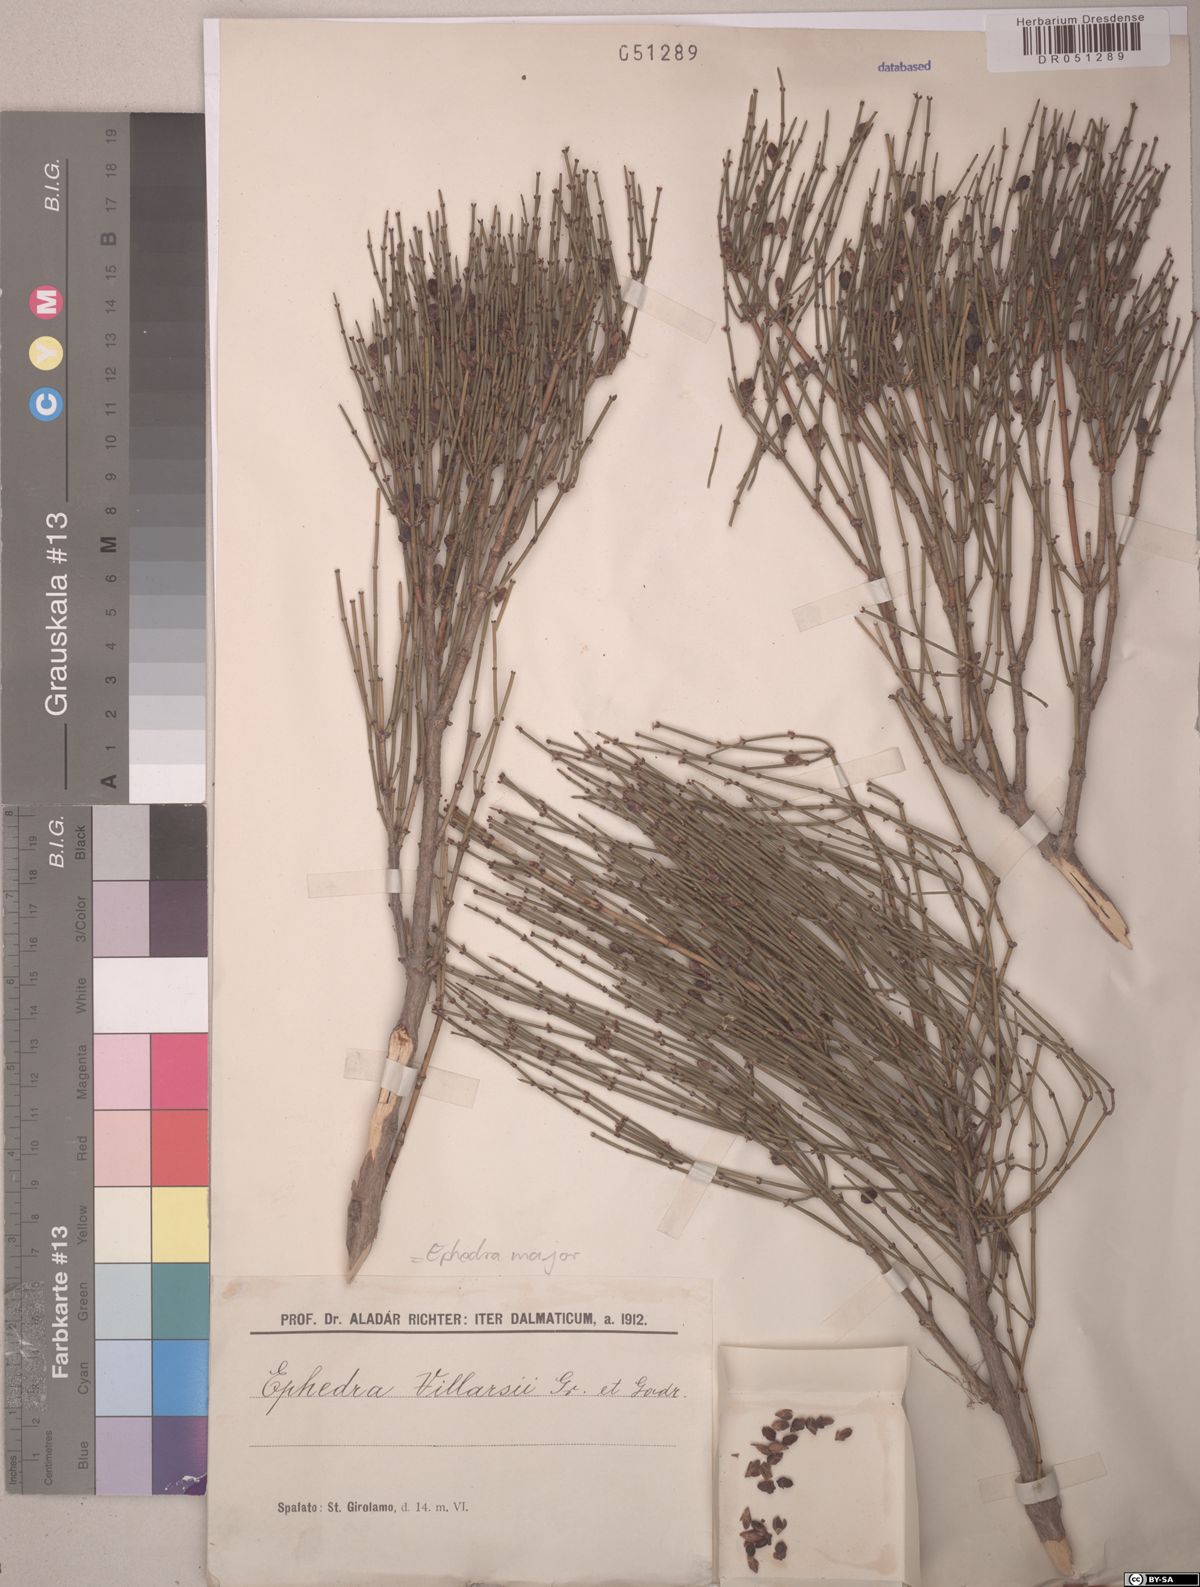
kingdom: Plantae
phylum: Tracheophyta
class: Gnetopsida
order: Ephedrales
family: Ephedraceae
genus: Ephedra
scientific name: Ephedra foeminea
